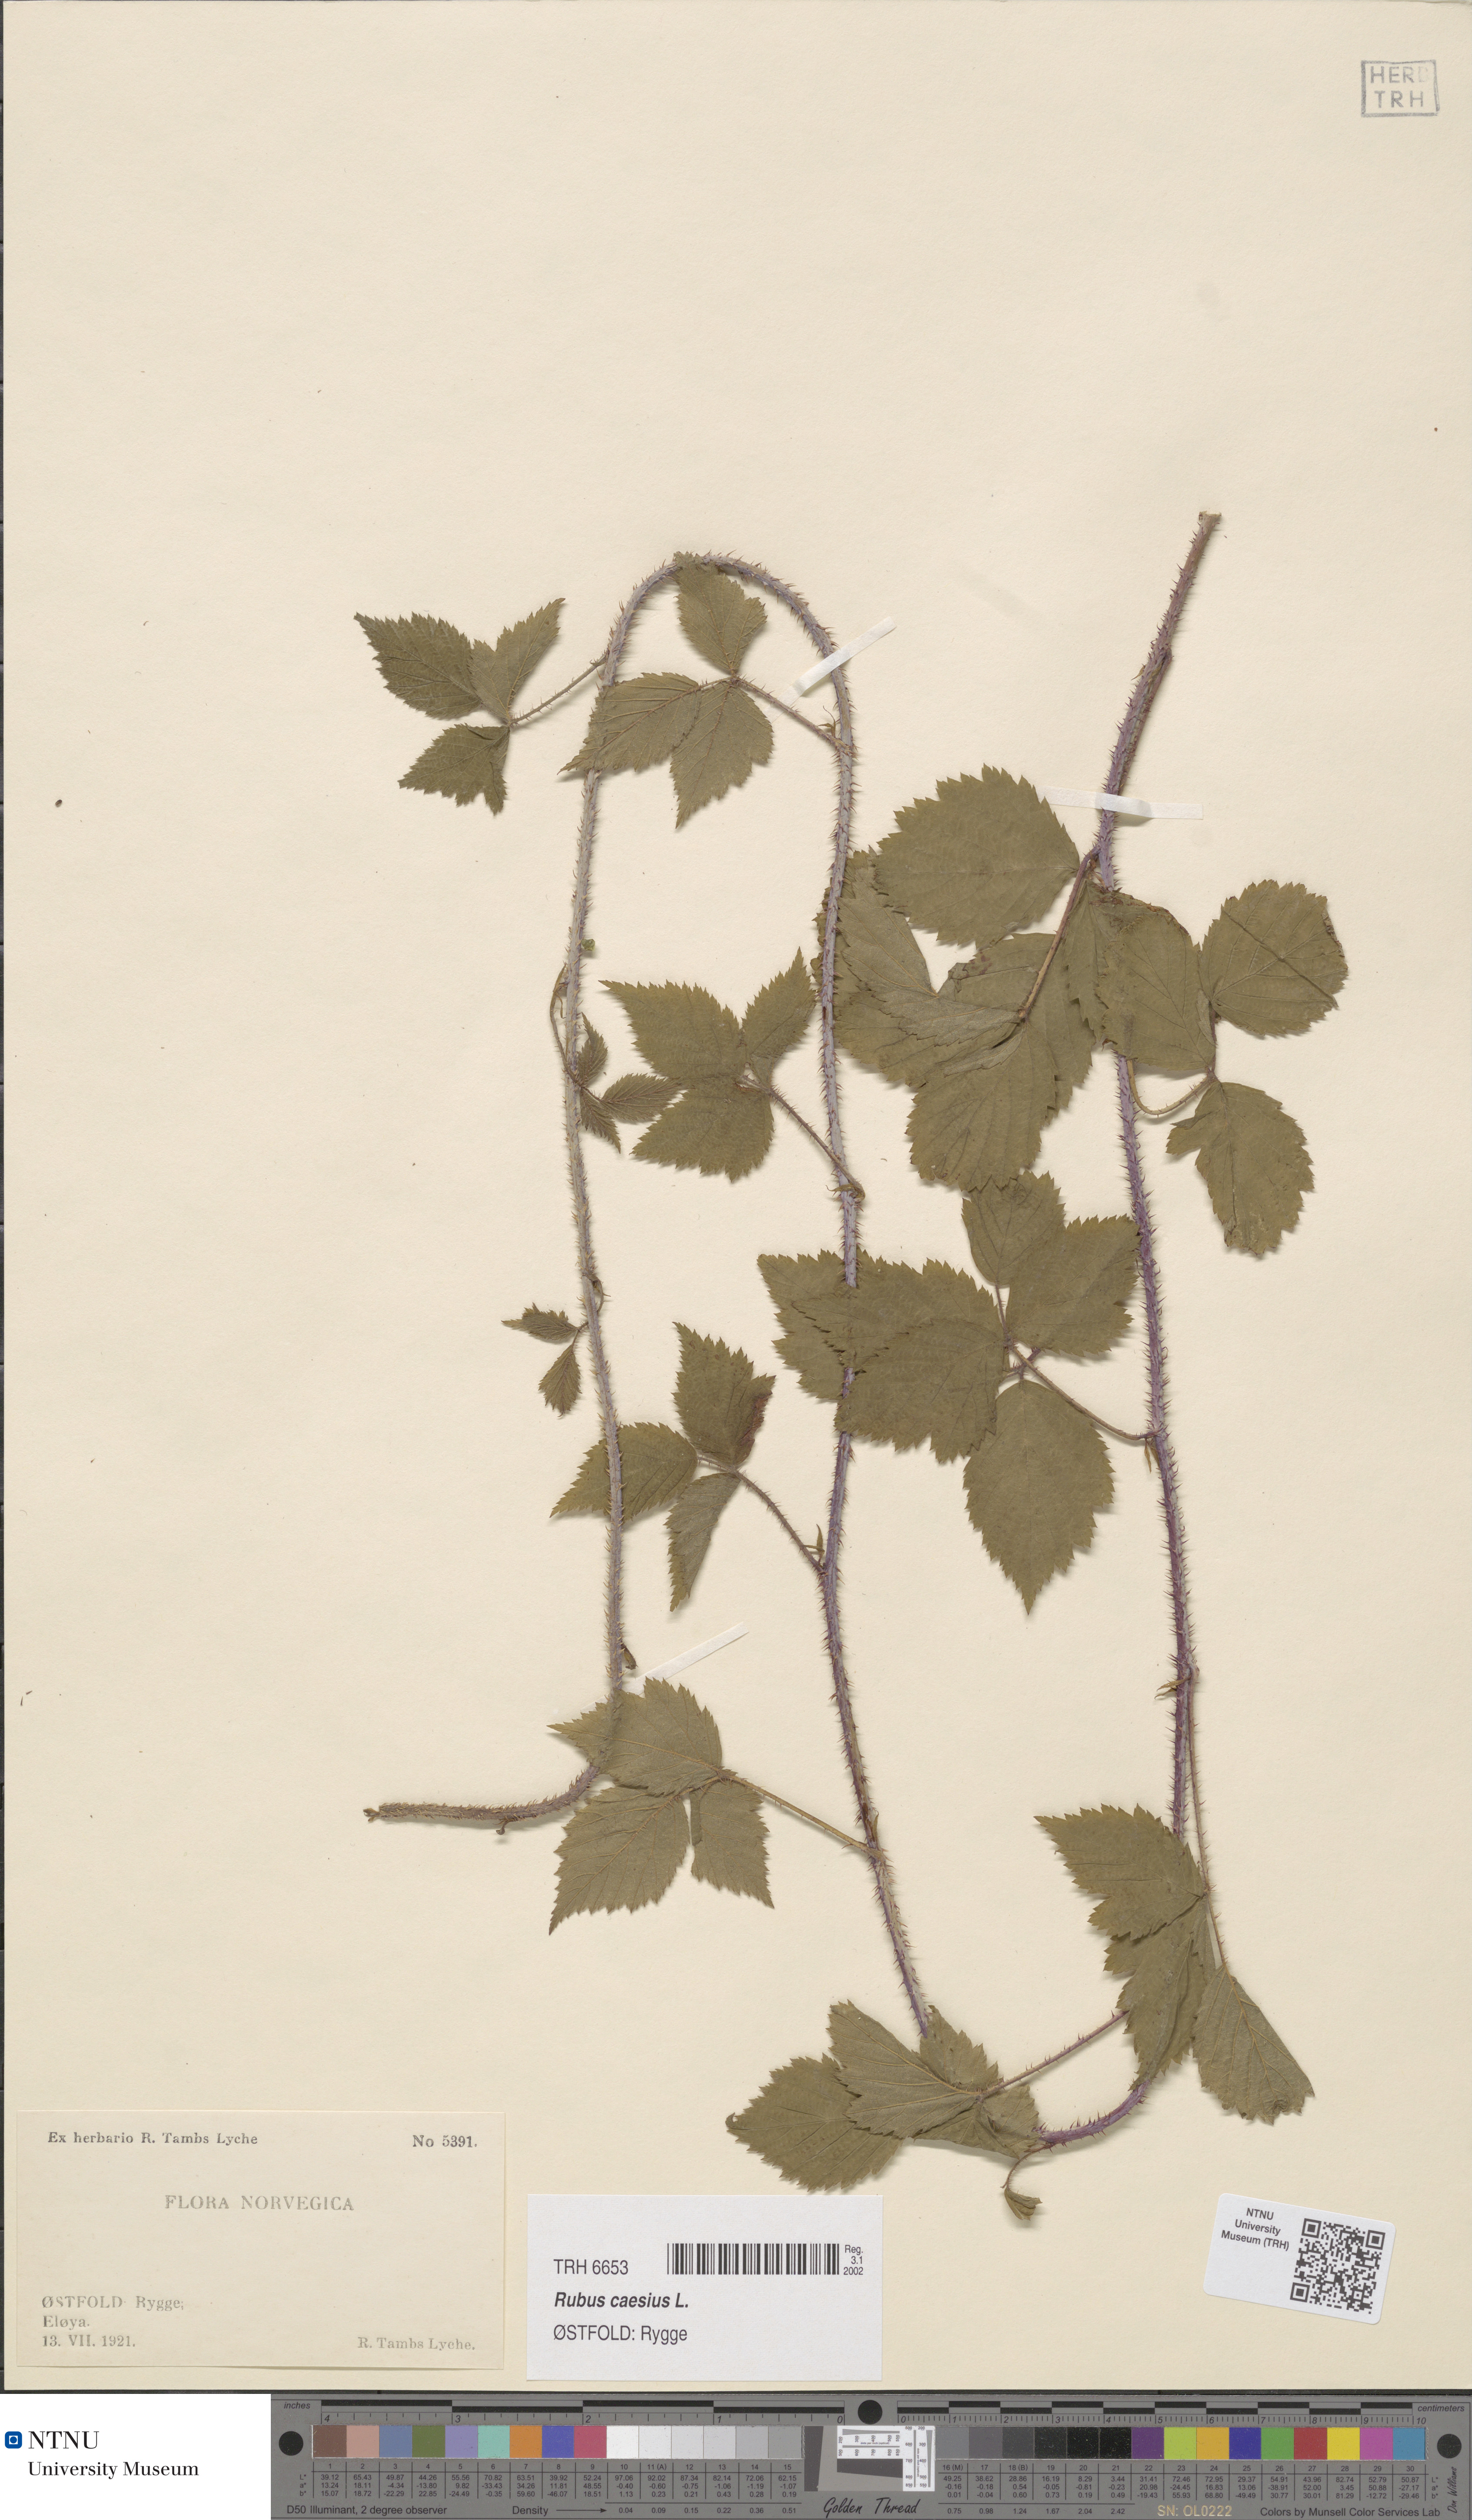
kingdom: Plantae
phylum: Tracheophyta
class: Magnoliopsida
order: Rosales
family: Rosaceae
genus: Rubus
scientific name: Rubus caesius
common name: Dewberry
